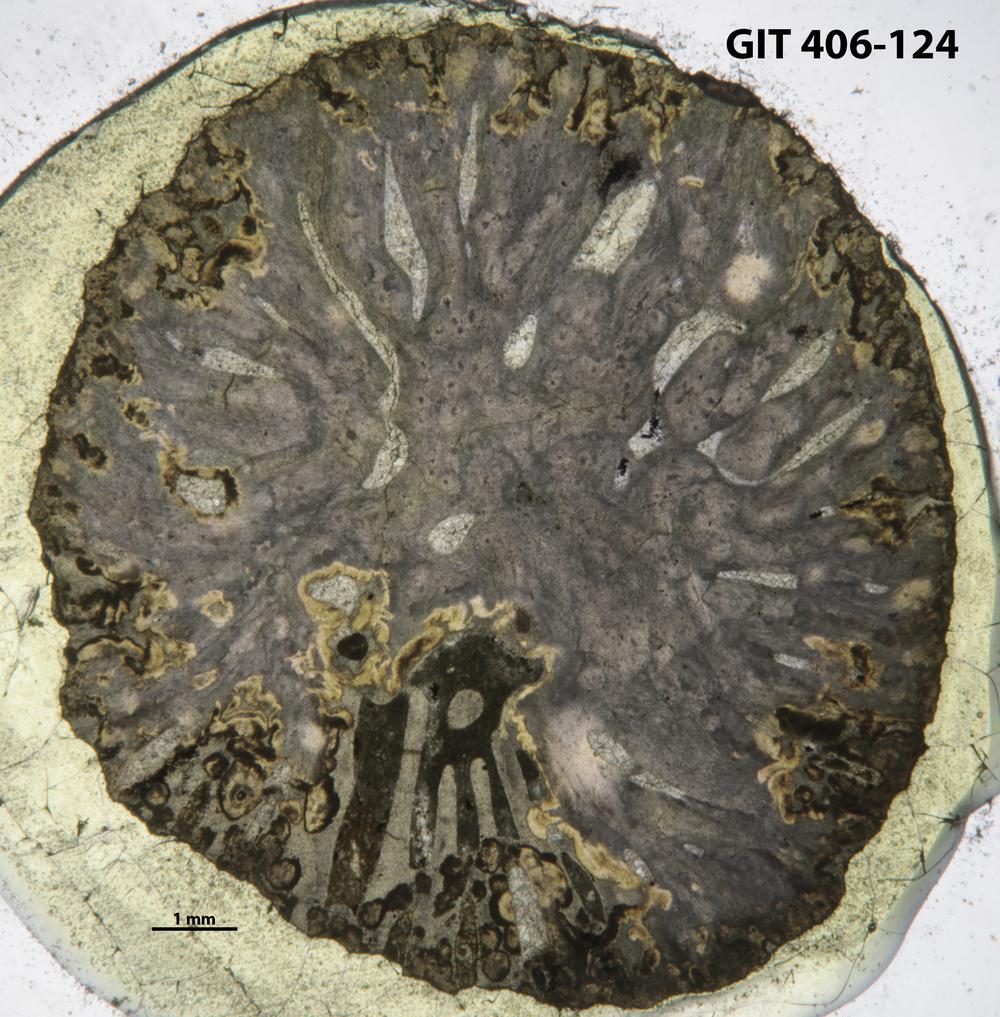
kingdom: Animalia
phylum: Cnidaria
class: Anthozoa
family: Streptelasmatidae
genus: Grewingkia
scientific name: Grewingkia
